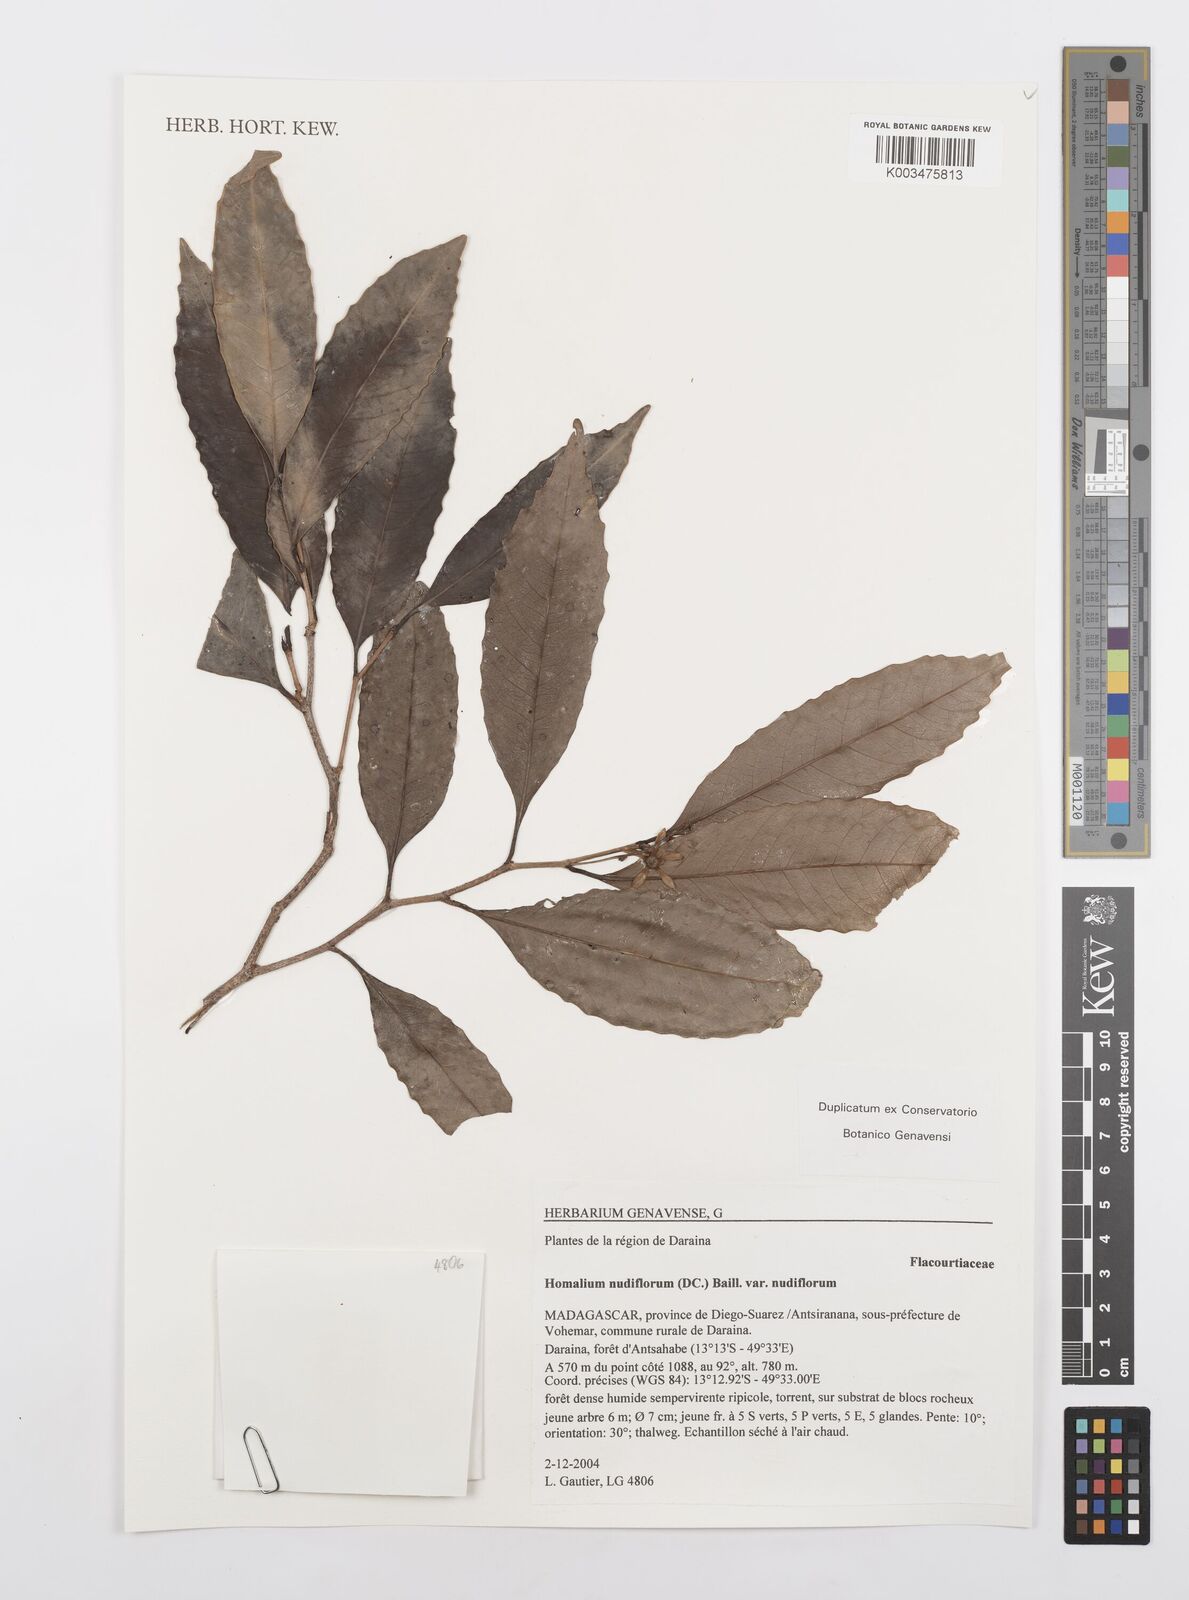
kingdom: Plantae
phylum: Tracheophyta
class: Magnoliopsida
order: Malpighiales
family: Salicaceae
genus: Homalium
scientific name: Homalium nudiflorum
